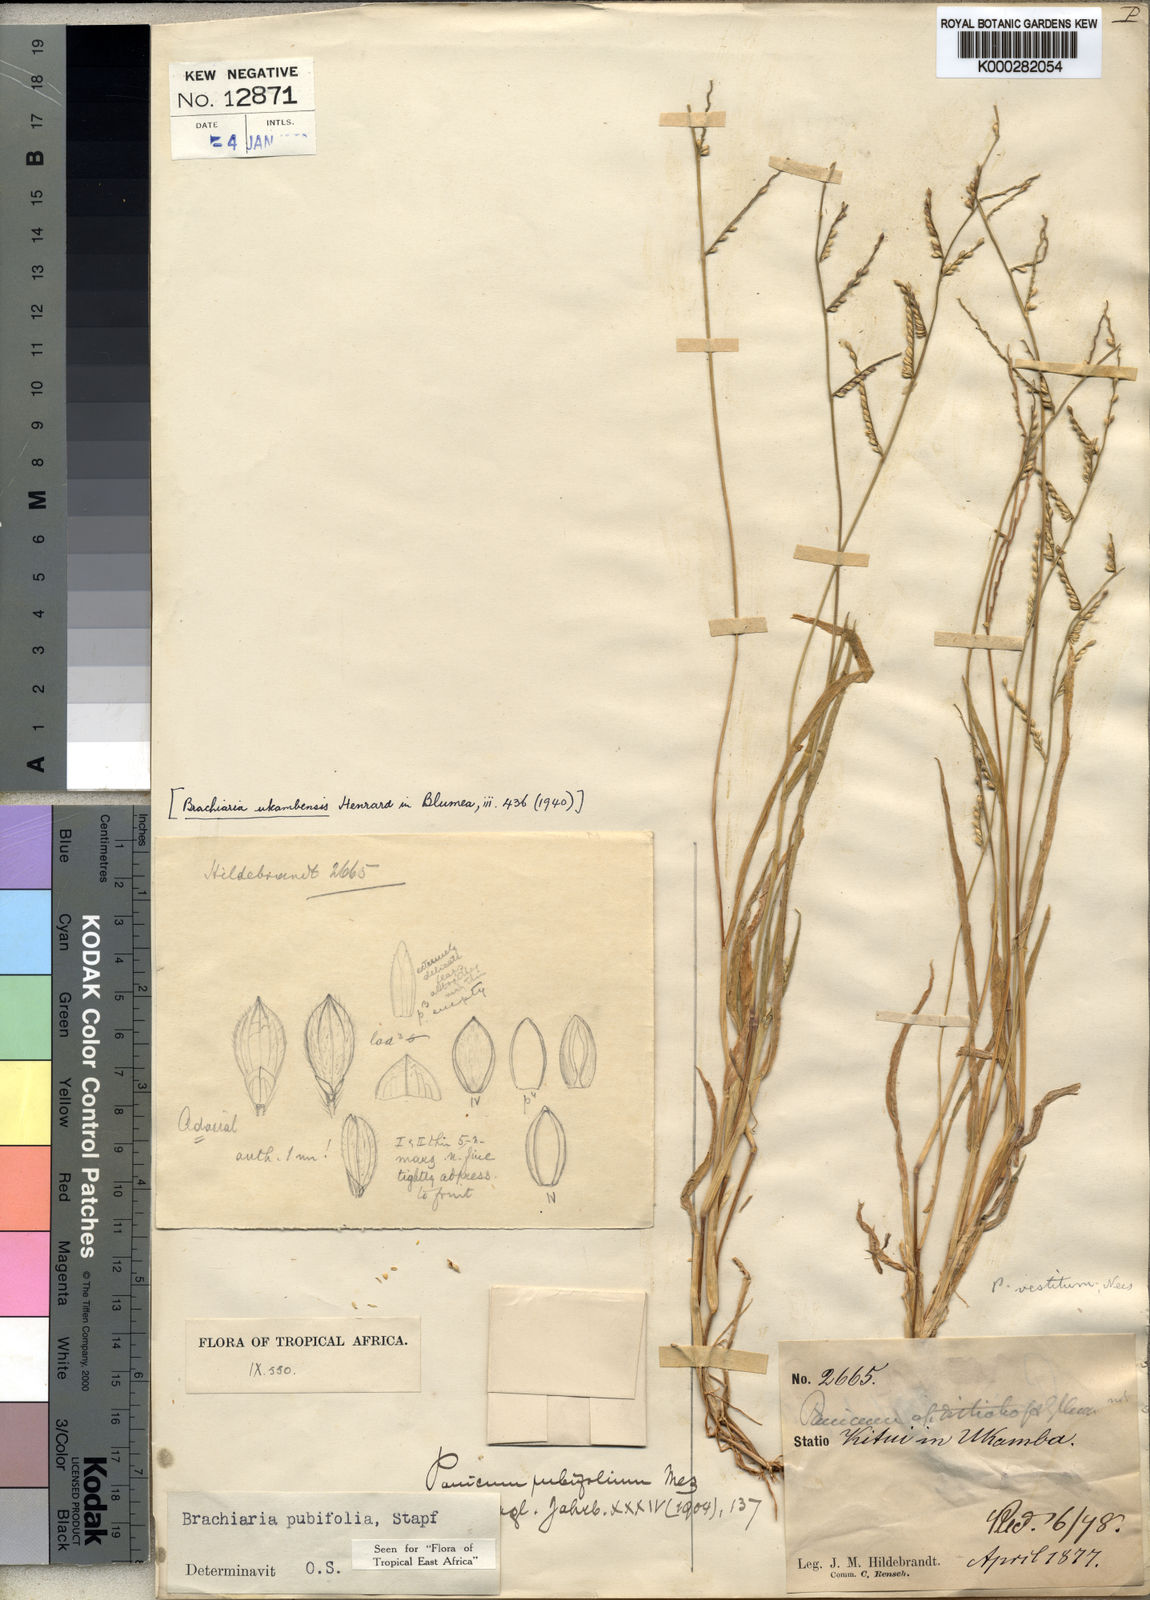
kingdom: Plantae
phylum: Tracheophyta
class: Liliopsida
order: Poales
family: Poaceae
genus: Urochloa
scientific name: Urochloa xantholeuca
